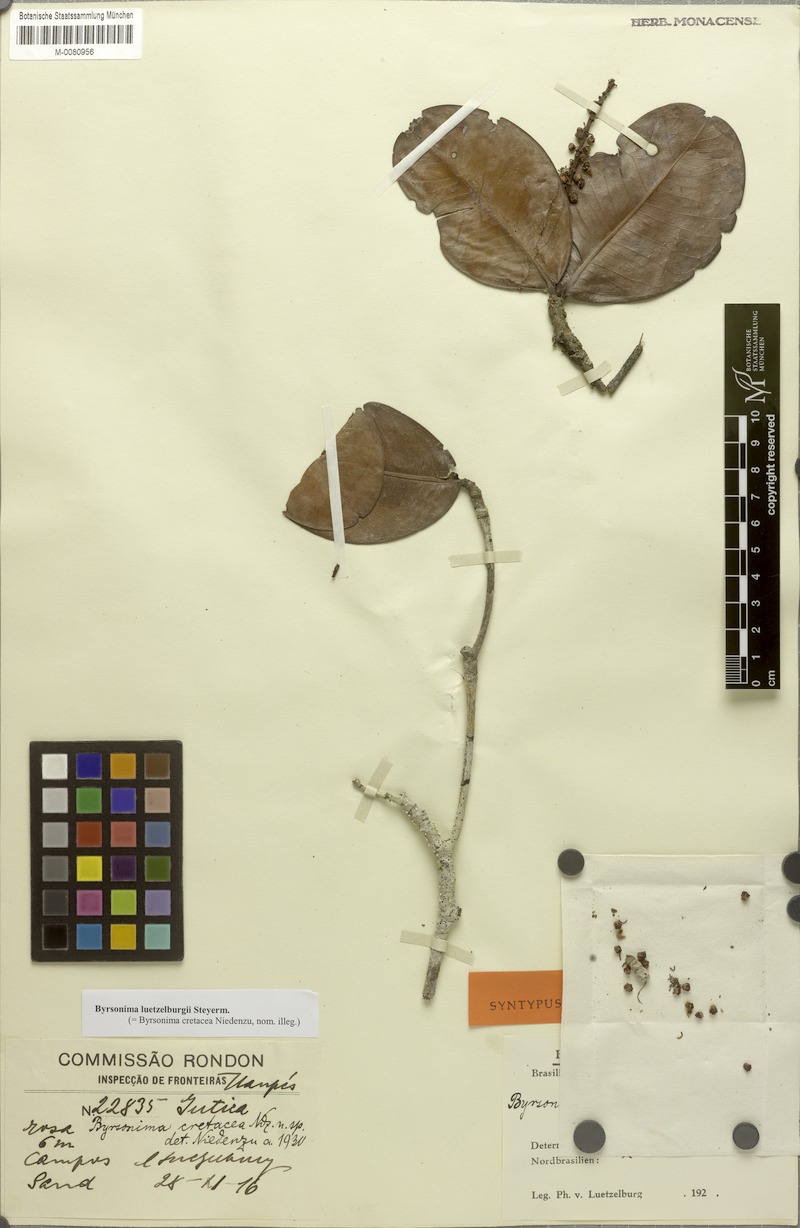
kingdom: Plantae
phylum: Tracheophyta
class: Magnoliopsida
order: Malpighiales
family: Malpighiaceae
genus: Byrsonima
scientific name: Byrsonima luetzelburgii
